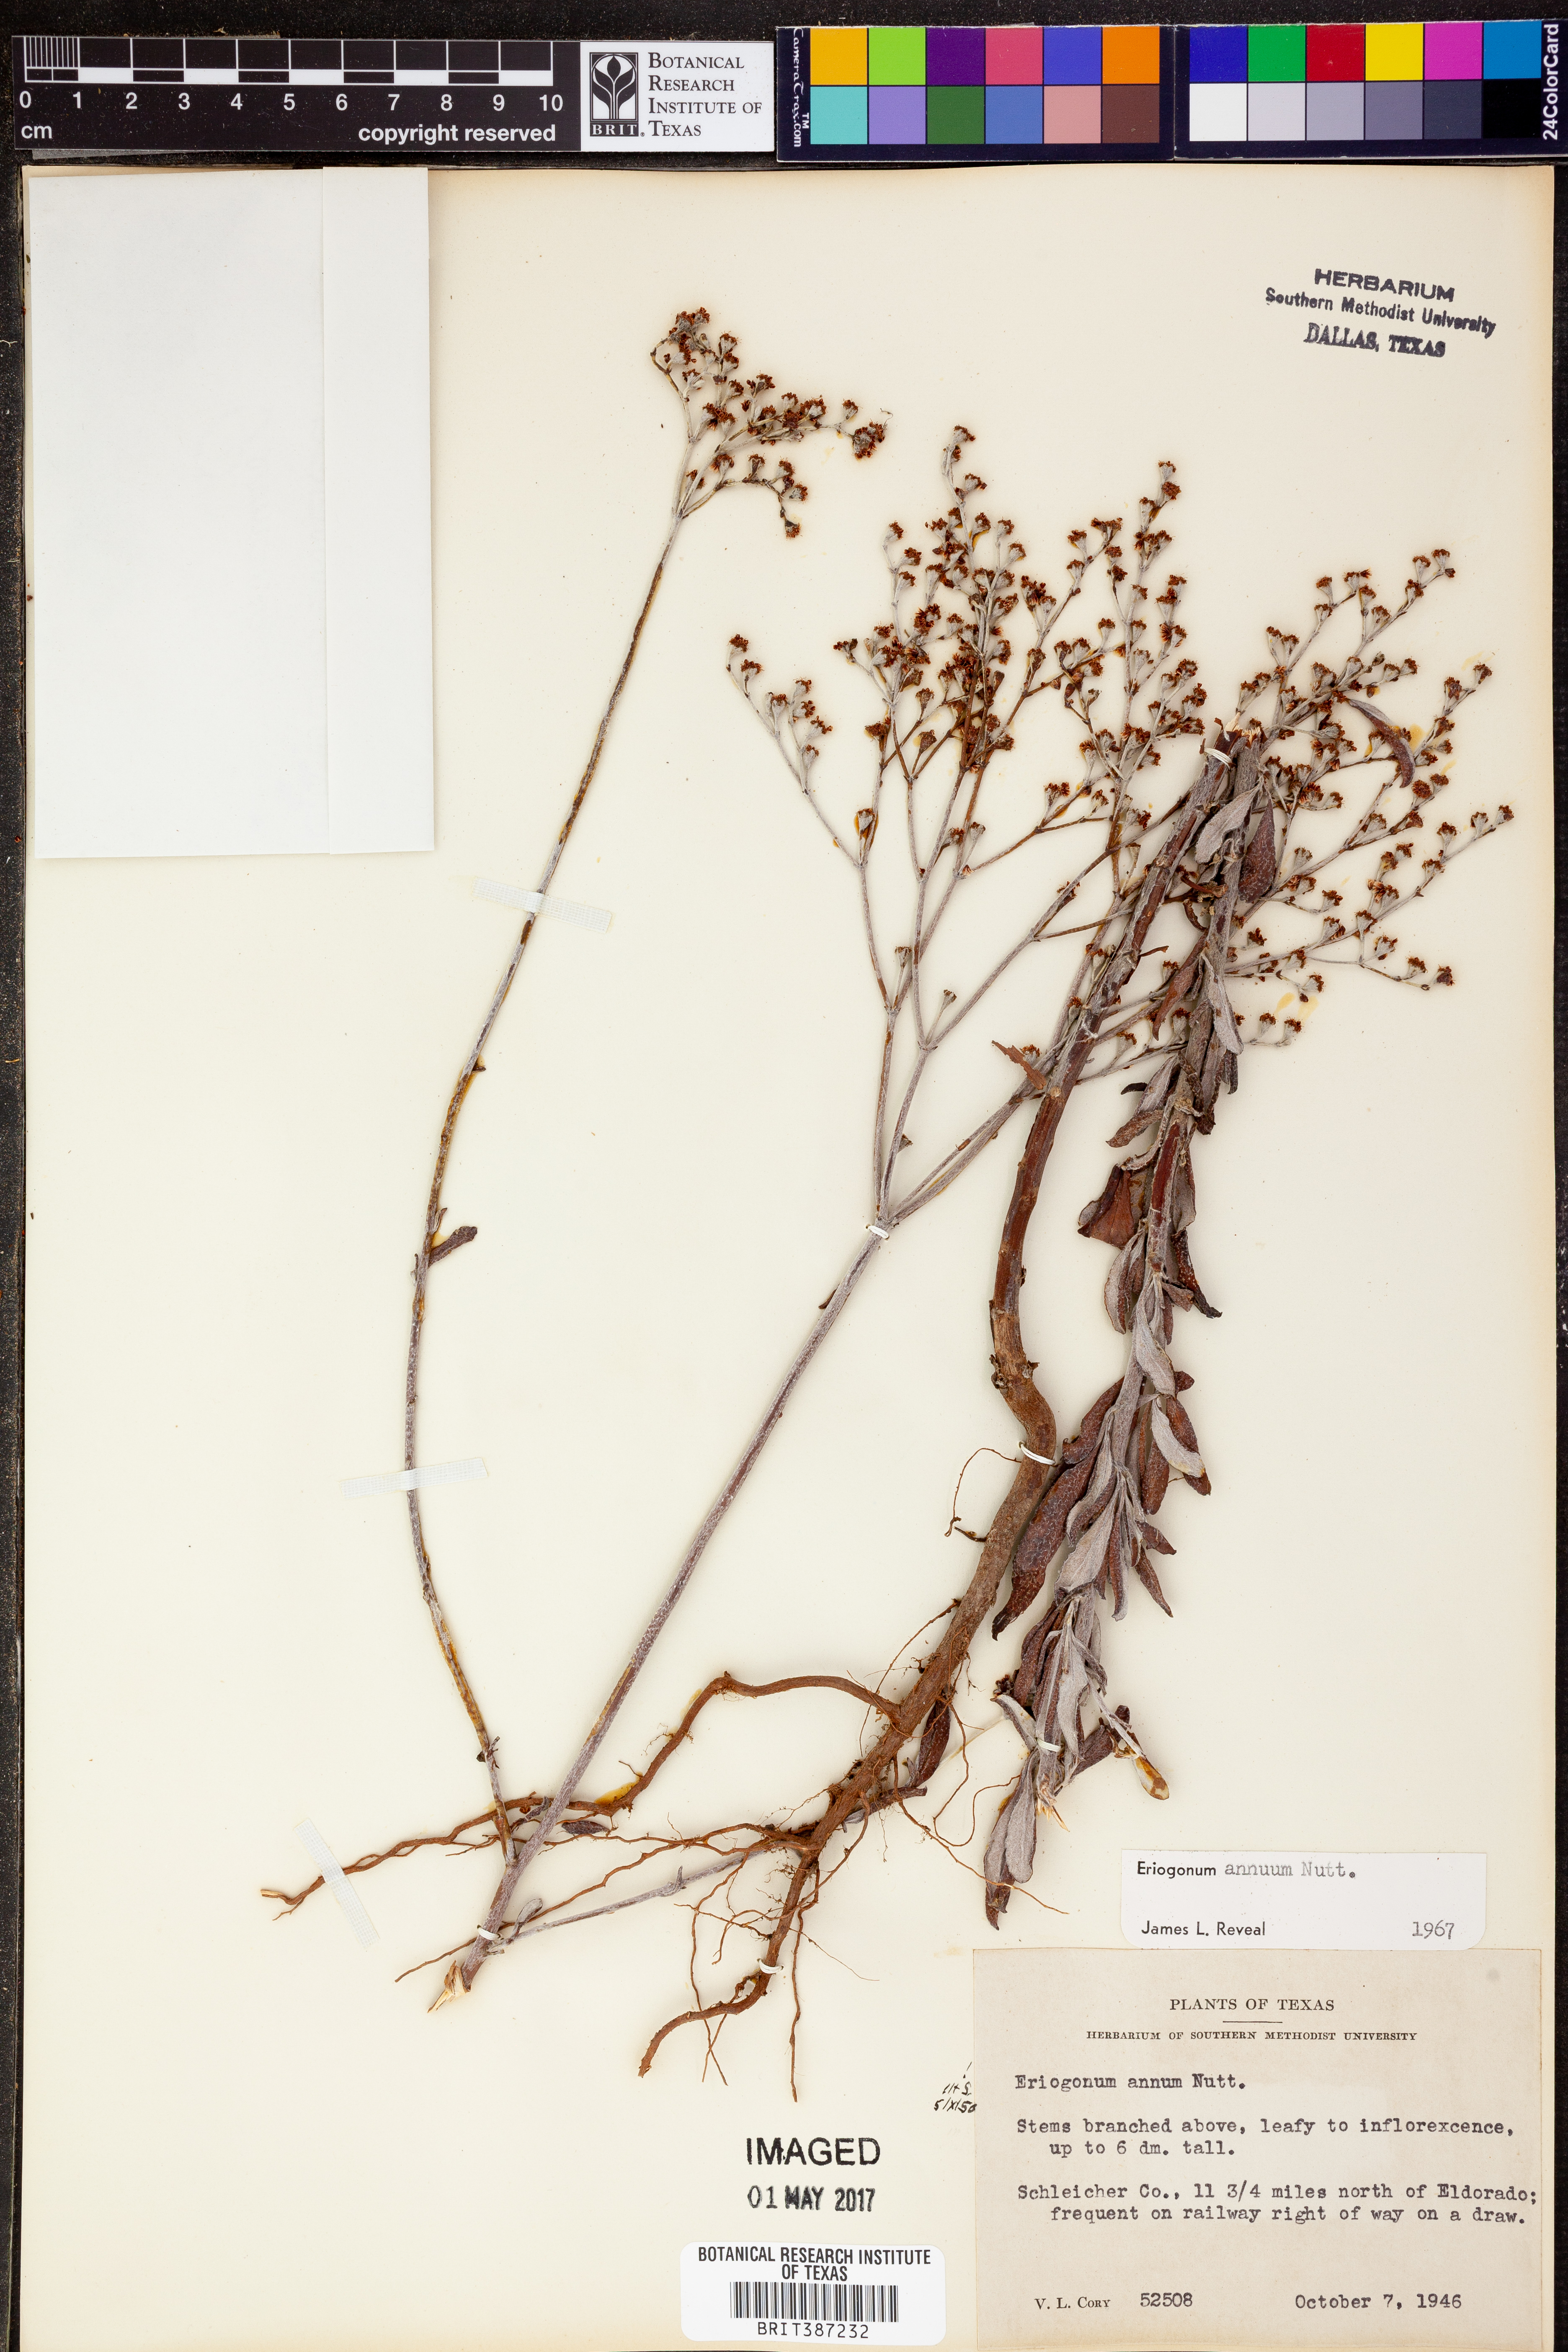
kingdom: Plantae
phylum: Tracheophyta
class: Magnoliopsida
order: Caryophyllales
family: Polygonaceae
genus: Eriogonum
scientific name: Eriogonum annuum
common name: Annual wild buckwheat
